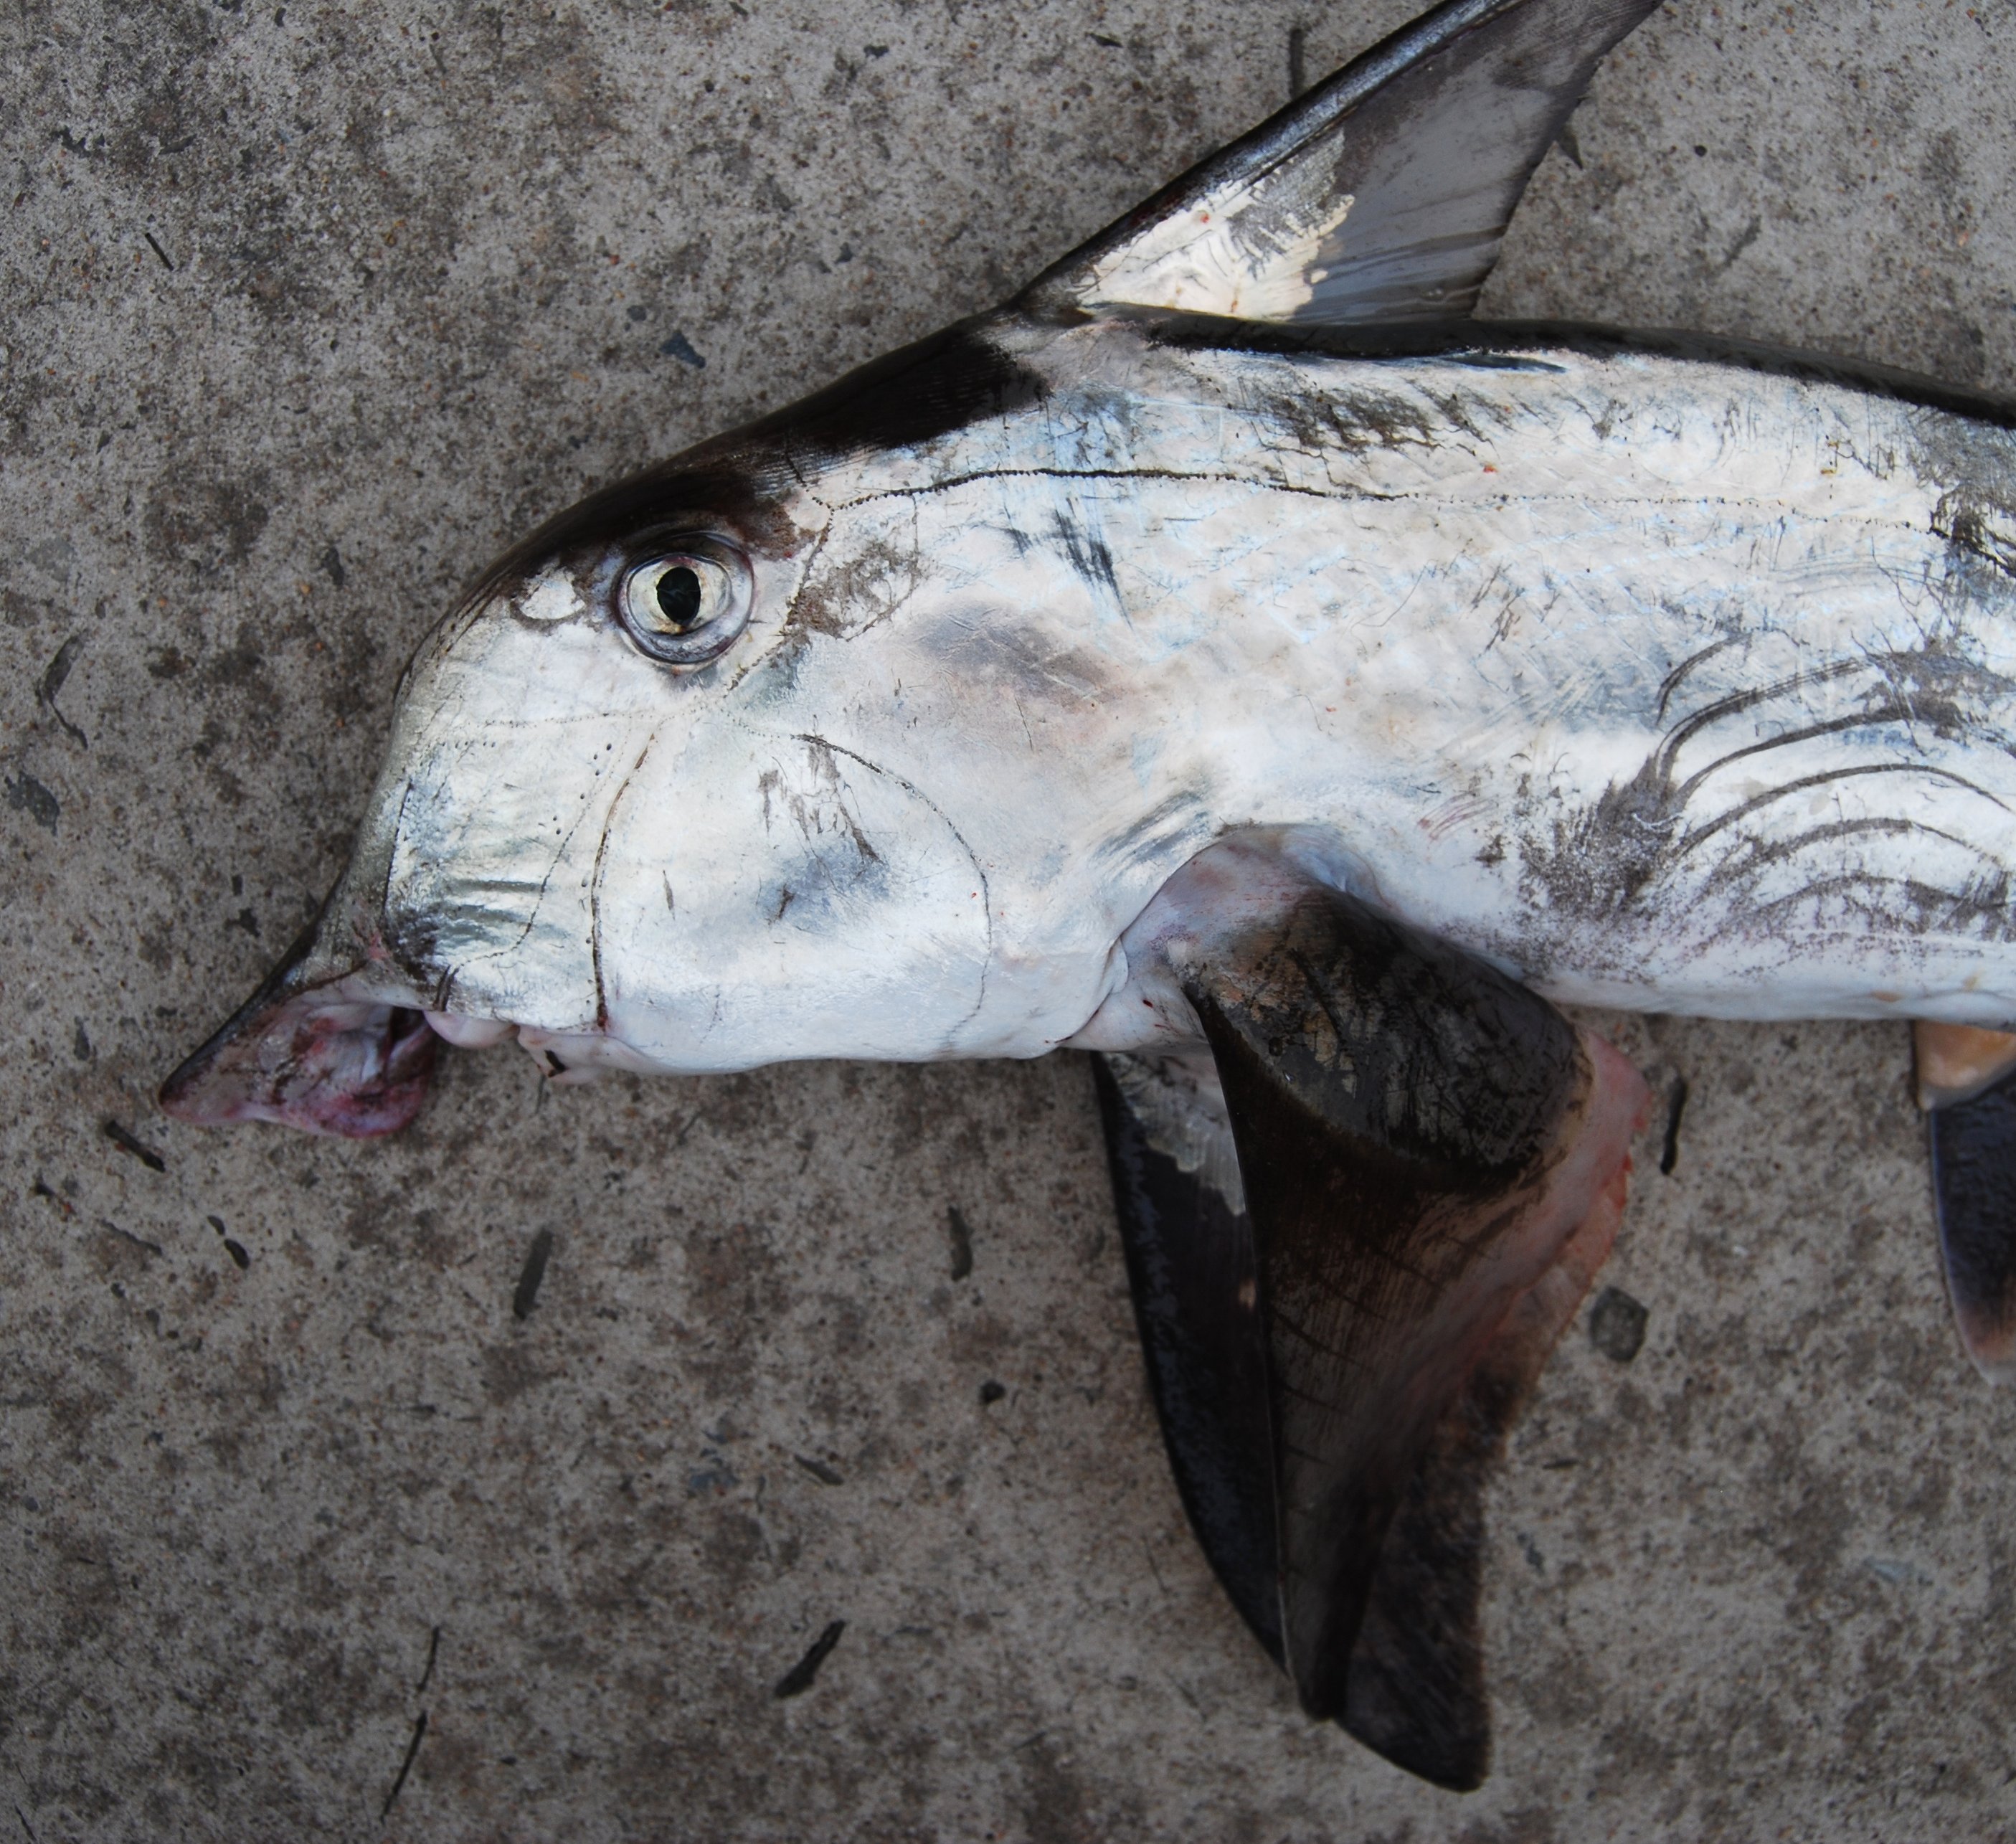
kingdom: Animalia
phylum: Chordata
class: Holocephali
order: Chimaeriformes
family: Callorhinchidae
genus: Callorhinchus
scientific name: Callorhinchus capensis
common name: Cape elephantfish
